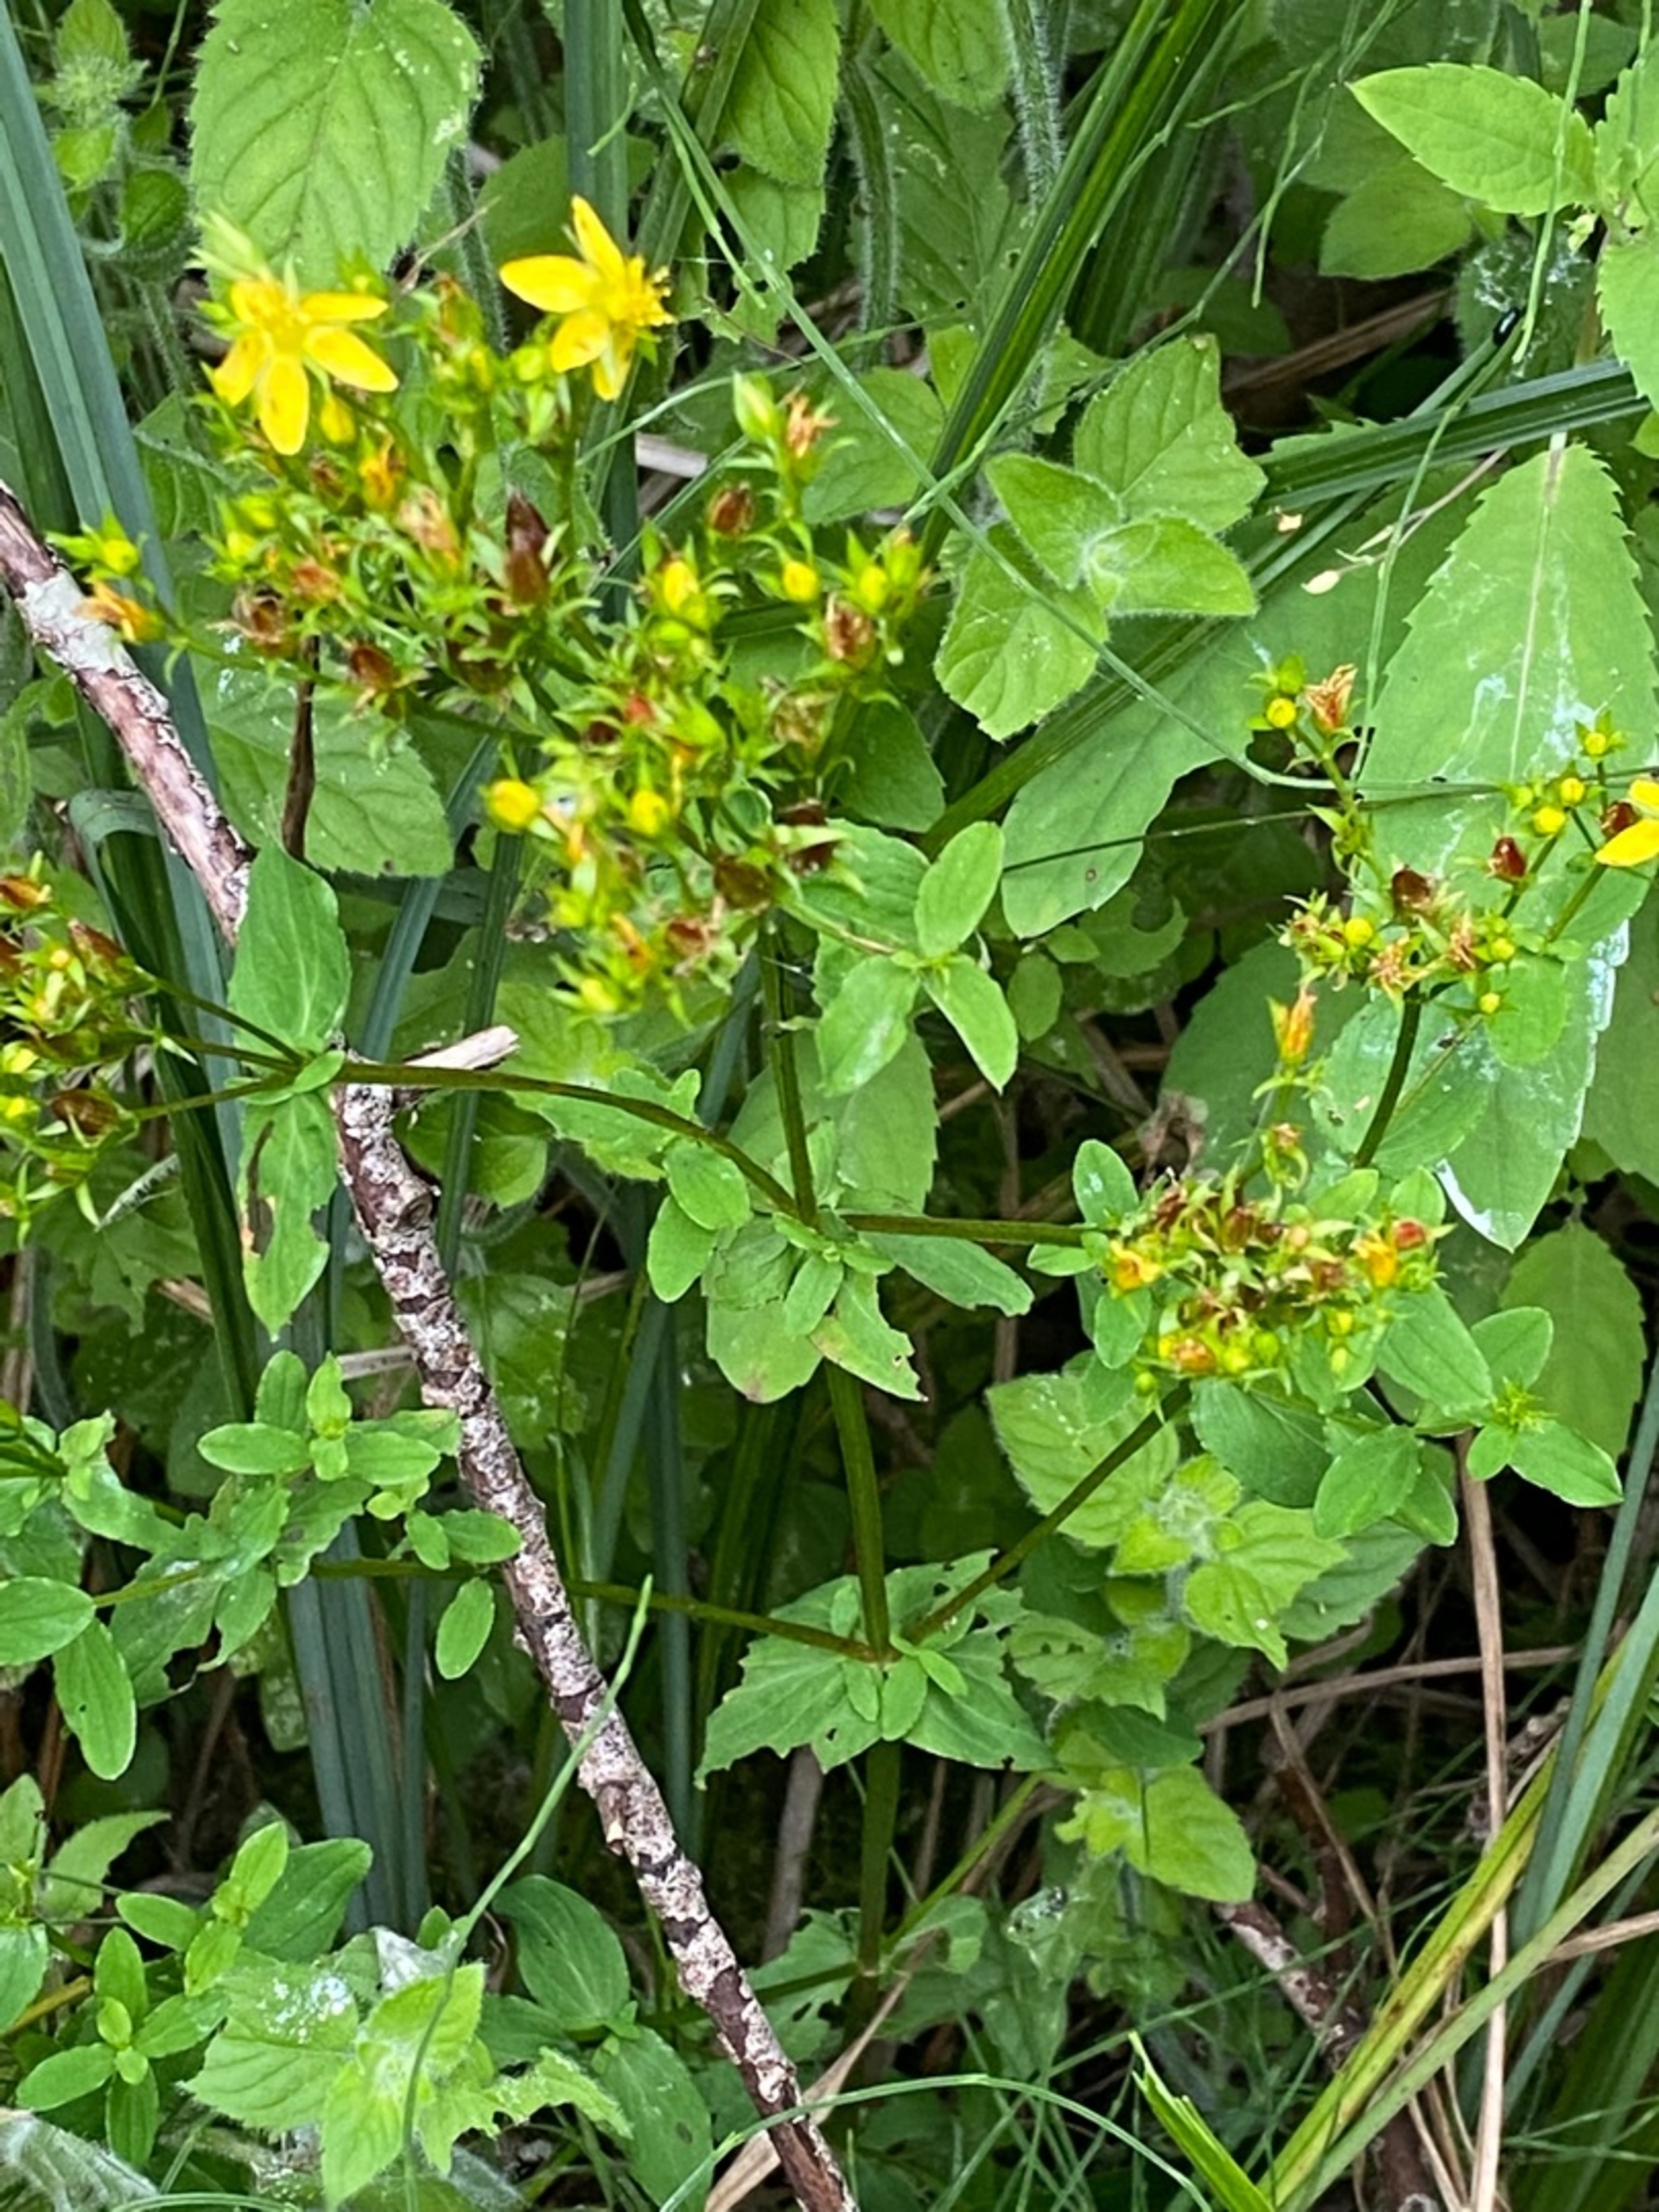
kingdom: Plantae
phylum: Tracheophyta
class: Magnoliopsida
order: Malpighiales
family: Hypericaceae
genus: Hypericum
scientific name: Hypericum tetrapterum
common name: Vinget perikon
